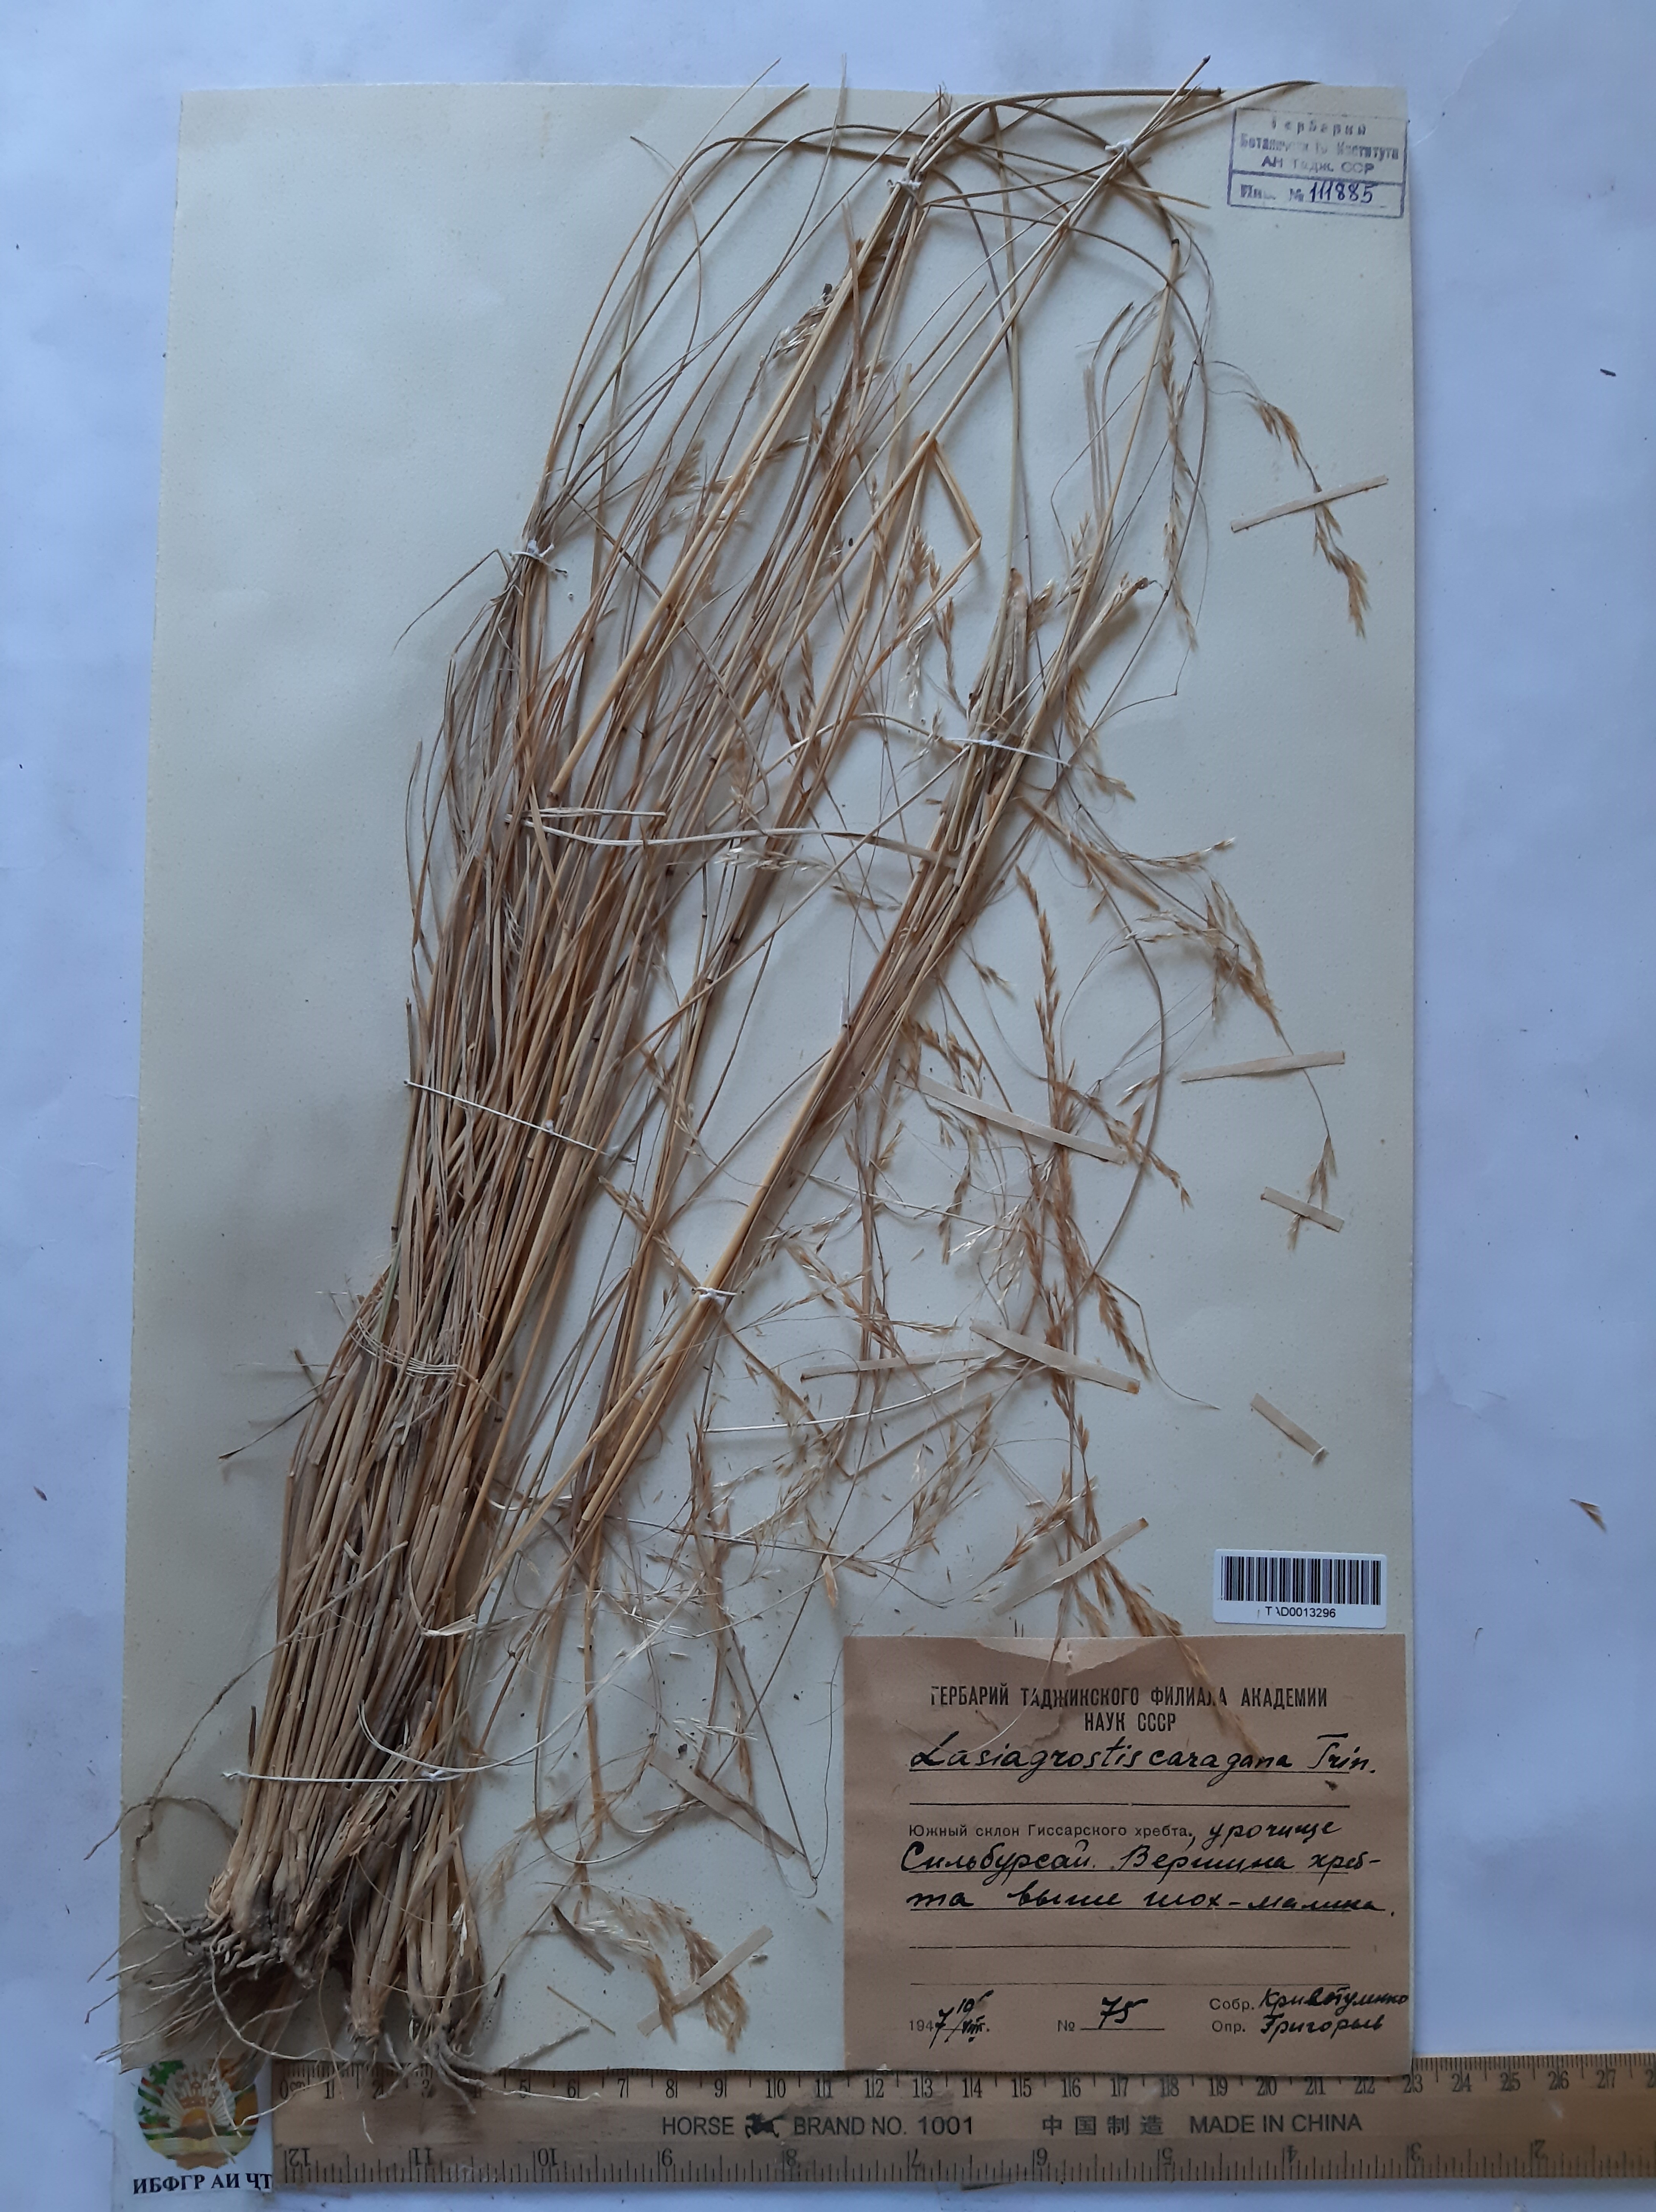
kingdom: Plantae
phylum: Tracheophyta
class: Liliopsida
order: Poales
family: Poaceae
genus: Stipa
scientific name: Stipa conferta
